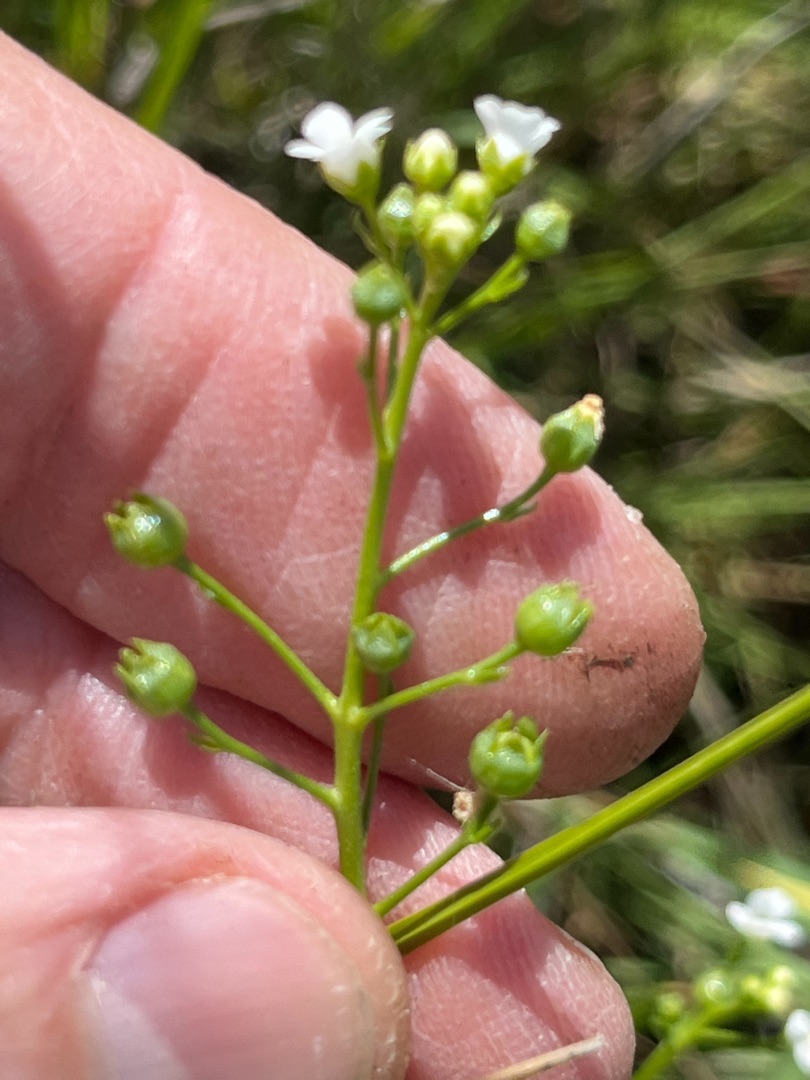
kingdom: Plantae
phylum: Tracheophyta
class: Magnoliopsida
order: Ericales
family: Primulaceae
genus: Samolus
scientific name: Samolus valerandi
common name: Samel
